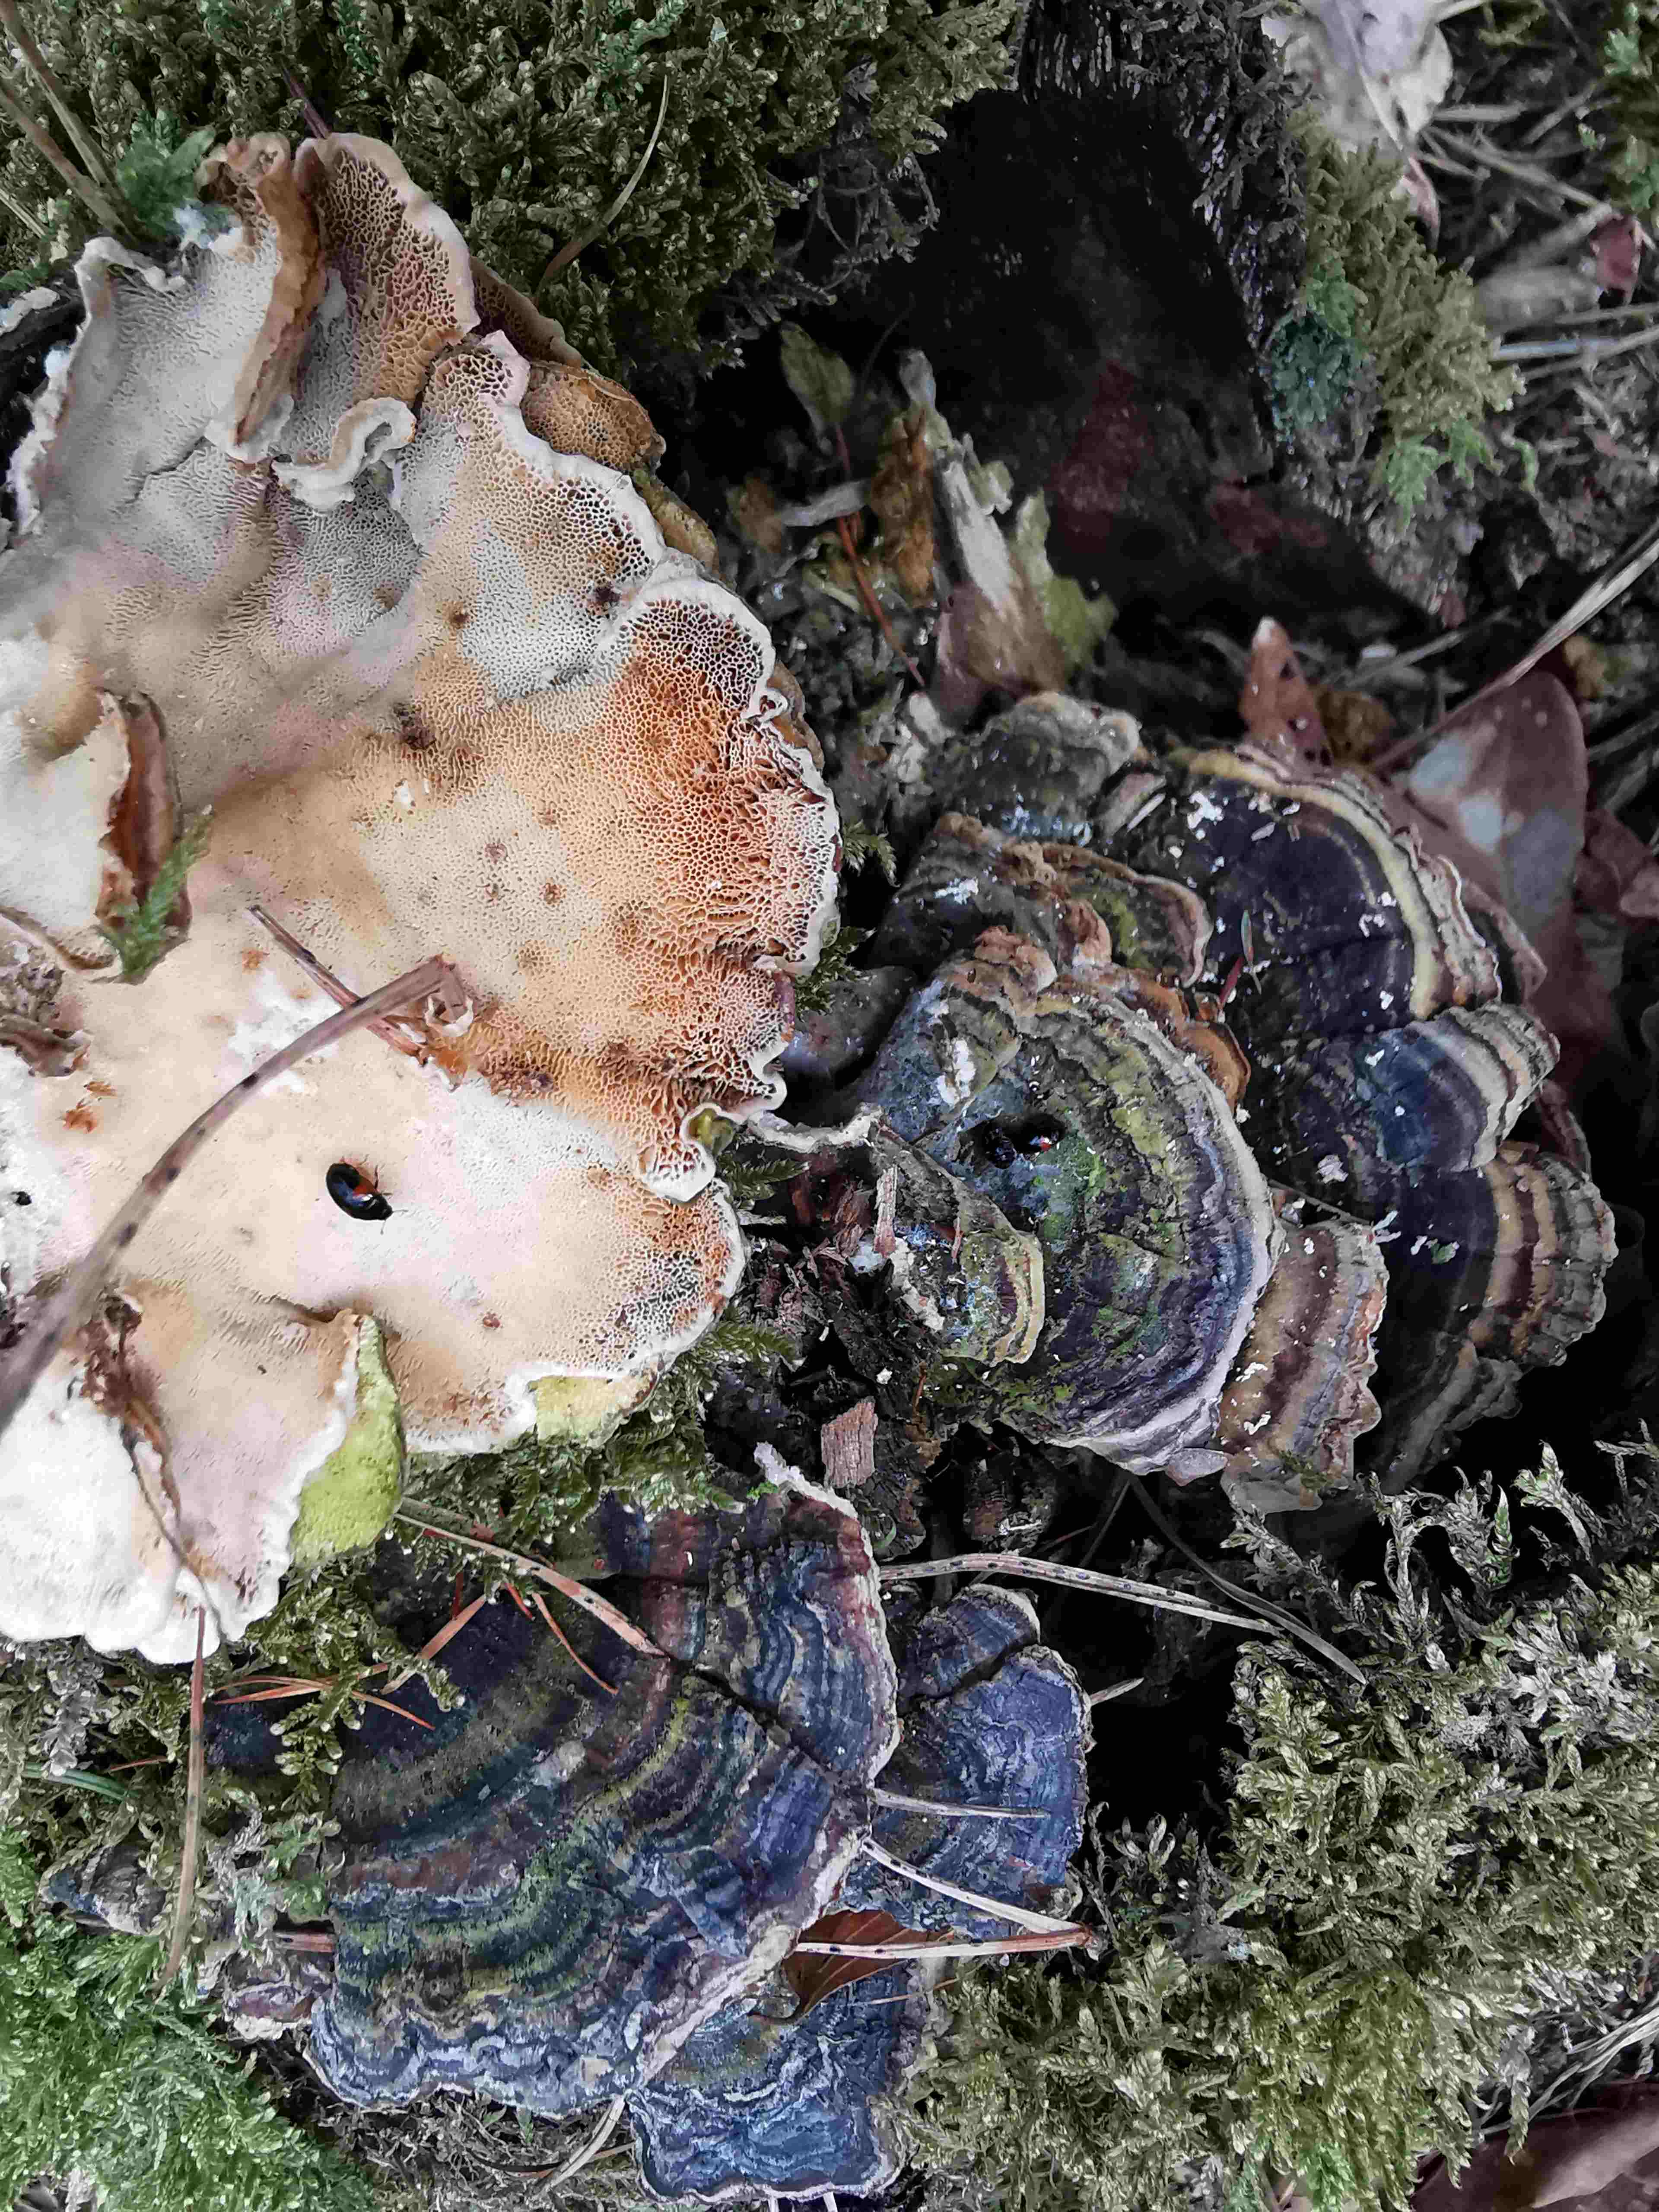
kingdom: Fungi
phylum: Basidiomycota
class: Agaricomycetes
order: Polyporales
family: Polyporaceae
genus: Trametes
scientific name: Trametes versicolor
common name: broget læderporesvamp
